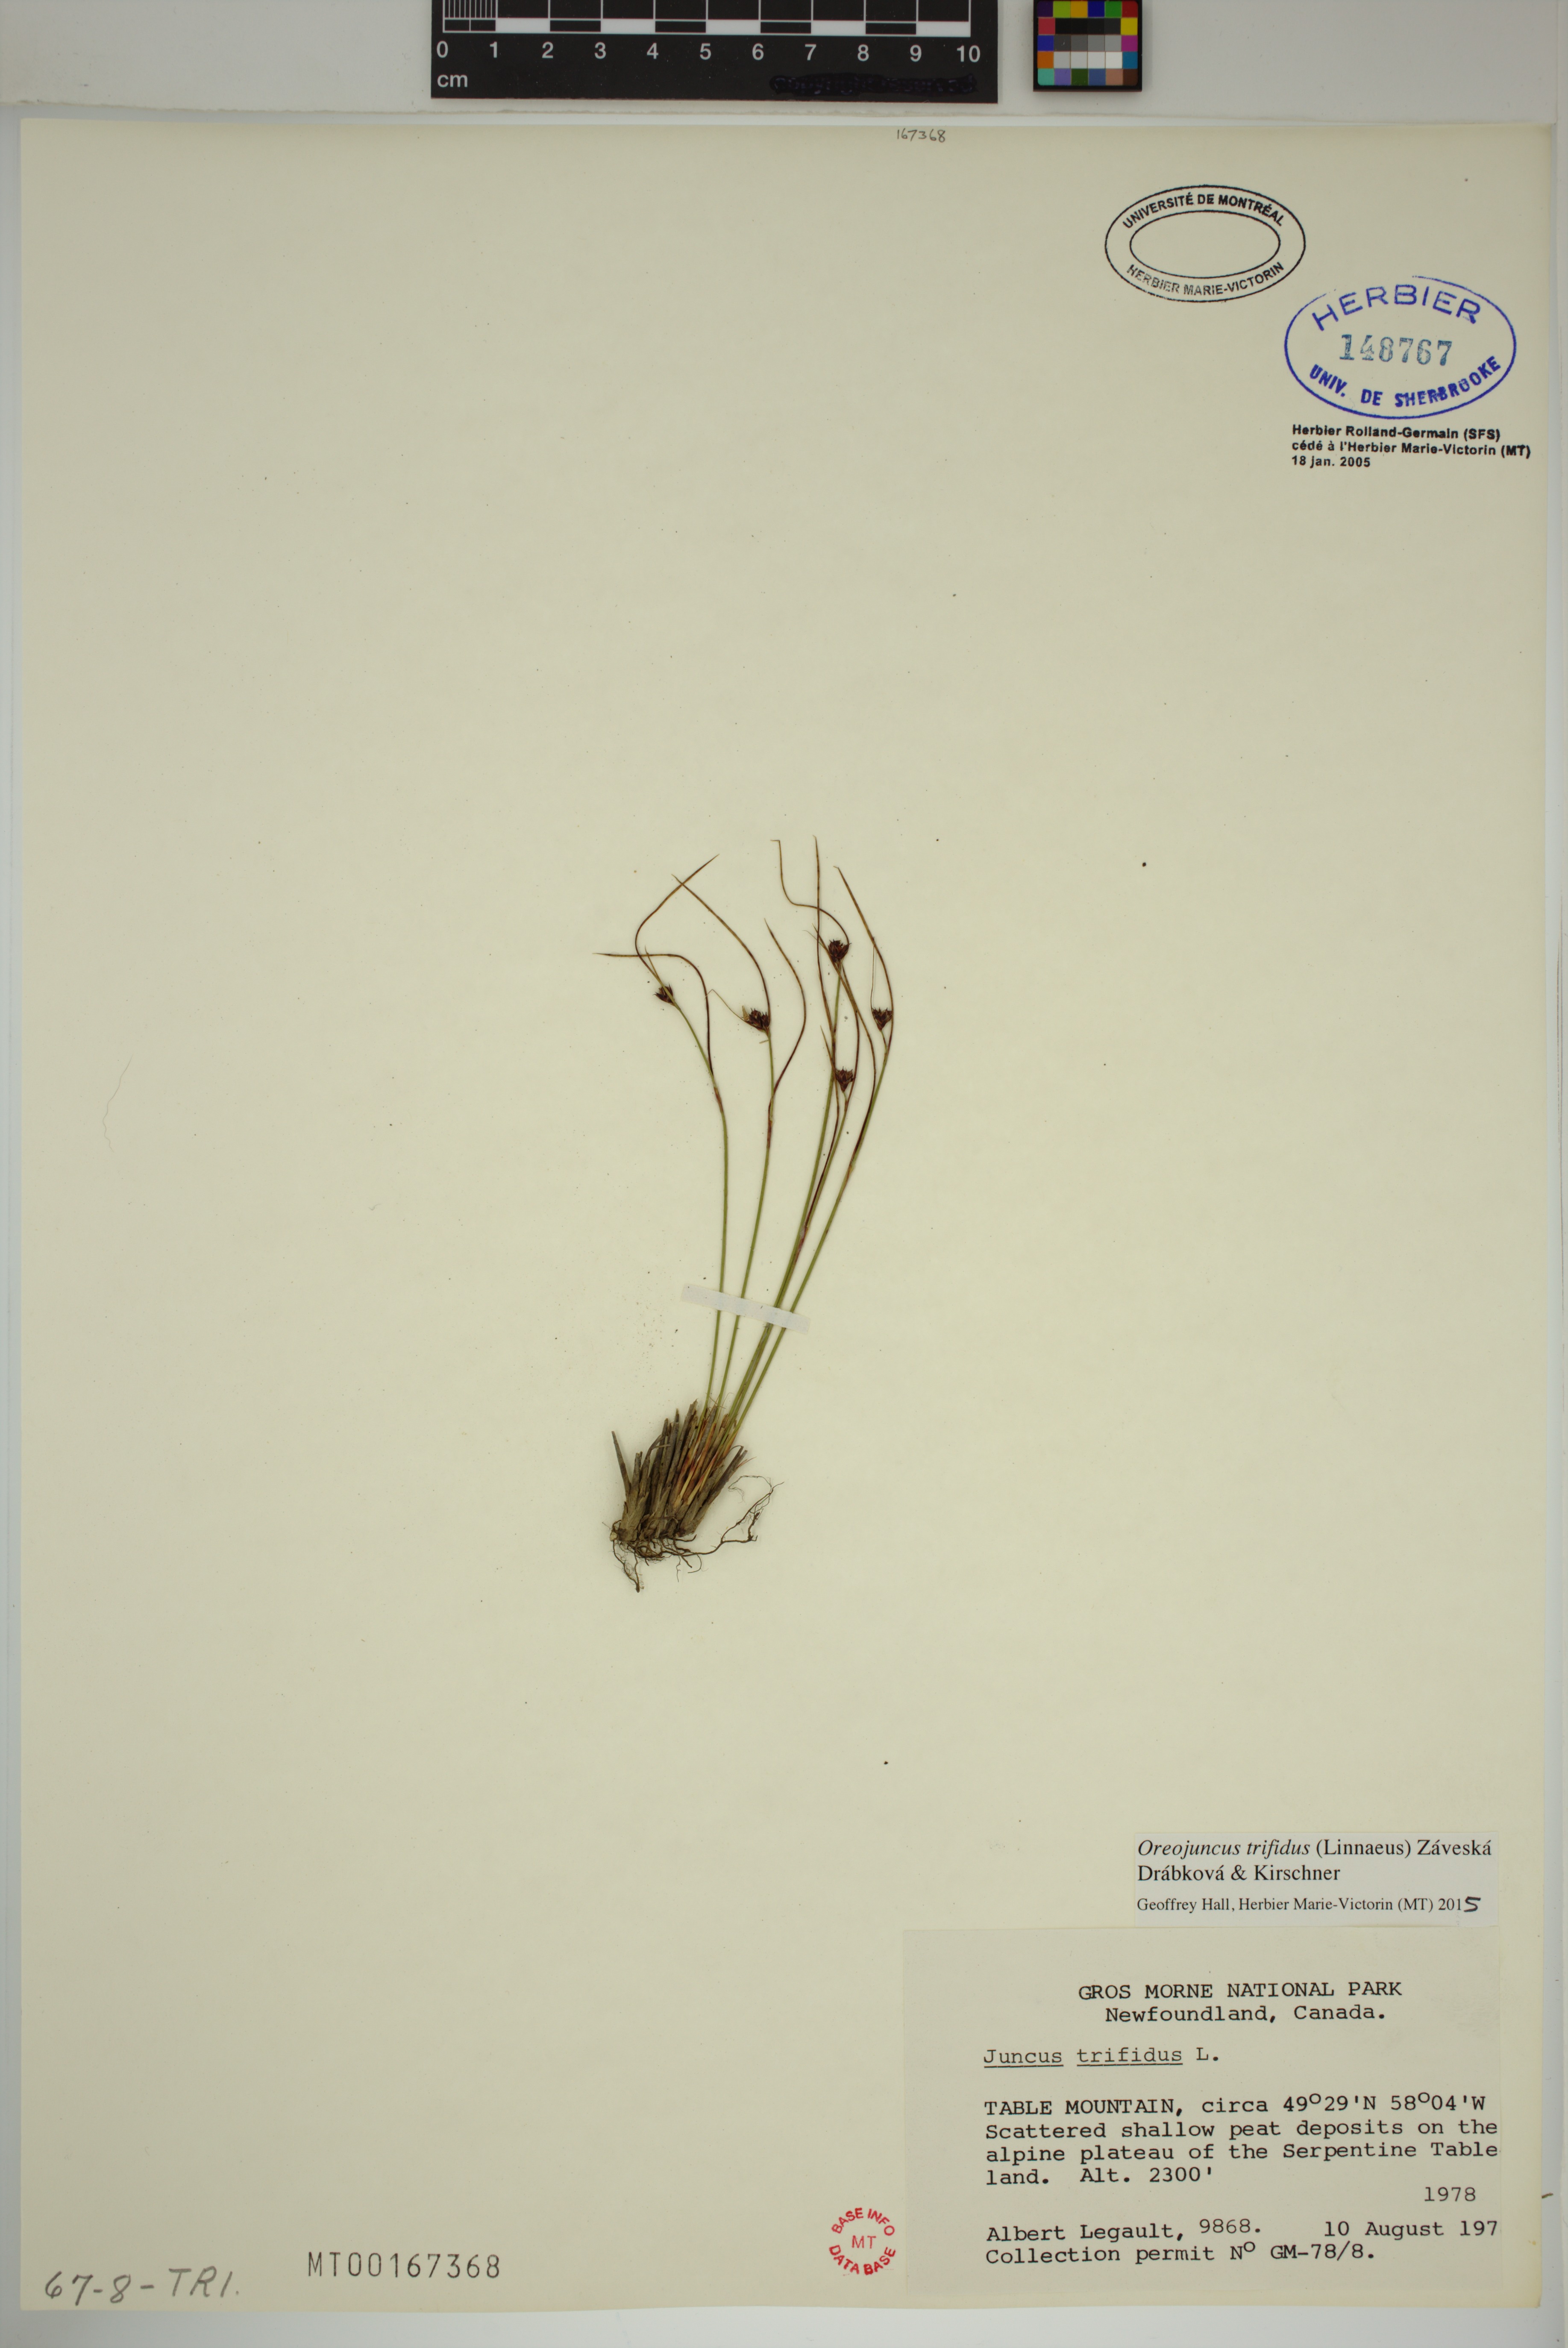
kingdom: Plantae
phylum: Tracheophyta
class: Liliopsida
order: Poales
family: Juncaceae
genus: Oreojuncus
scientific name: Oreojuncus trifidus
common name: Highland rush
